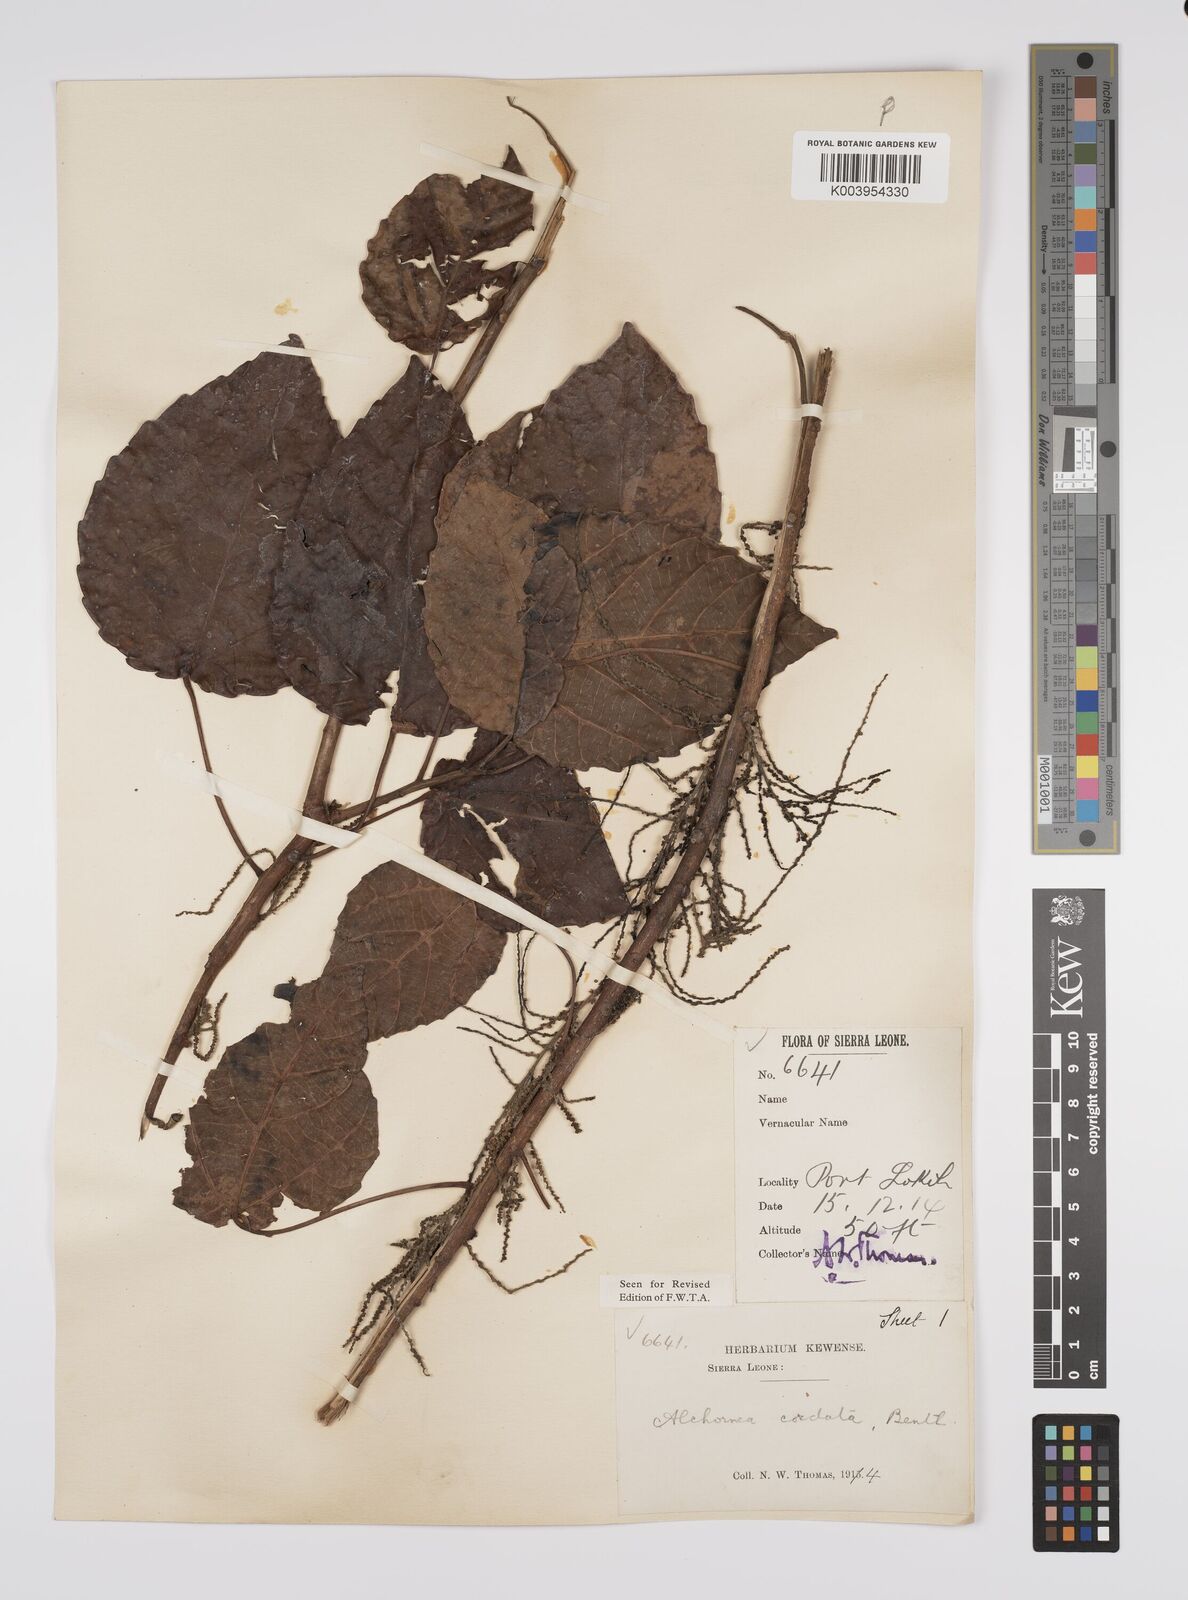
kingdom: Plantae
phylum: Tracheophyta
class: Magnoliopsida
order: Malpighiales
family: Euphorbiaceae
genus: Alchornea
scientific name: Alchornea cordifolia
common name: Christmasbush
